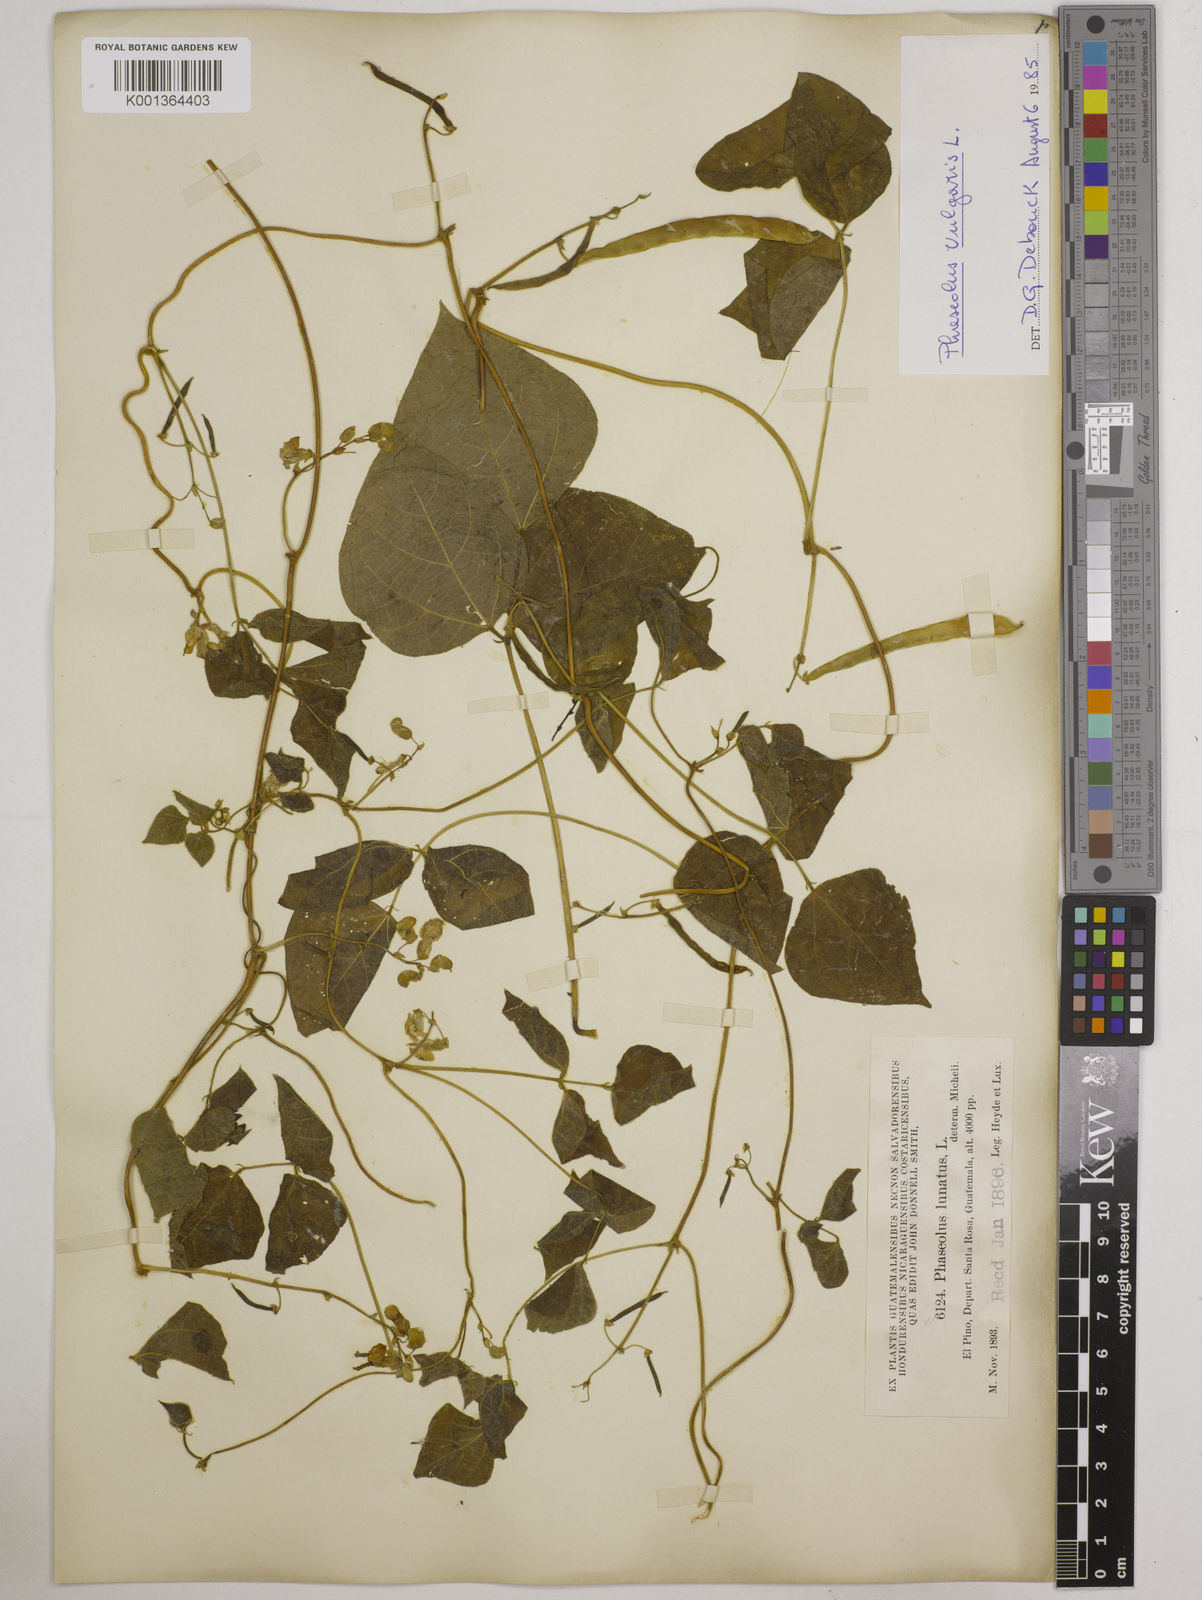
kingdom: Plantae
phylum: Tracheophyta
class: Magnoliopsida
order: Fabales
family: Fabaceae
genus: Phaseolus
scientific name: Phaseolus vulgaris
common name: Bean
